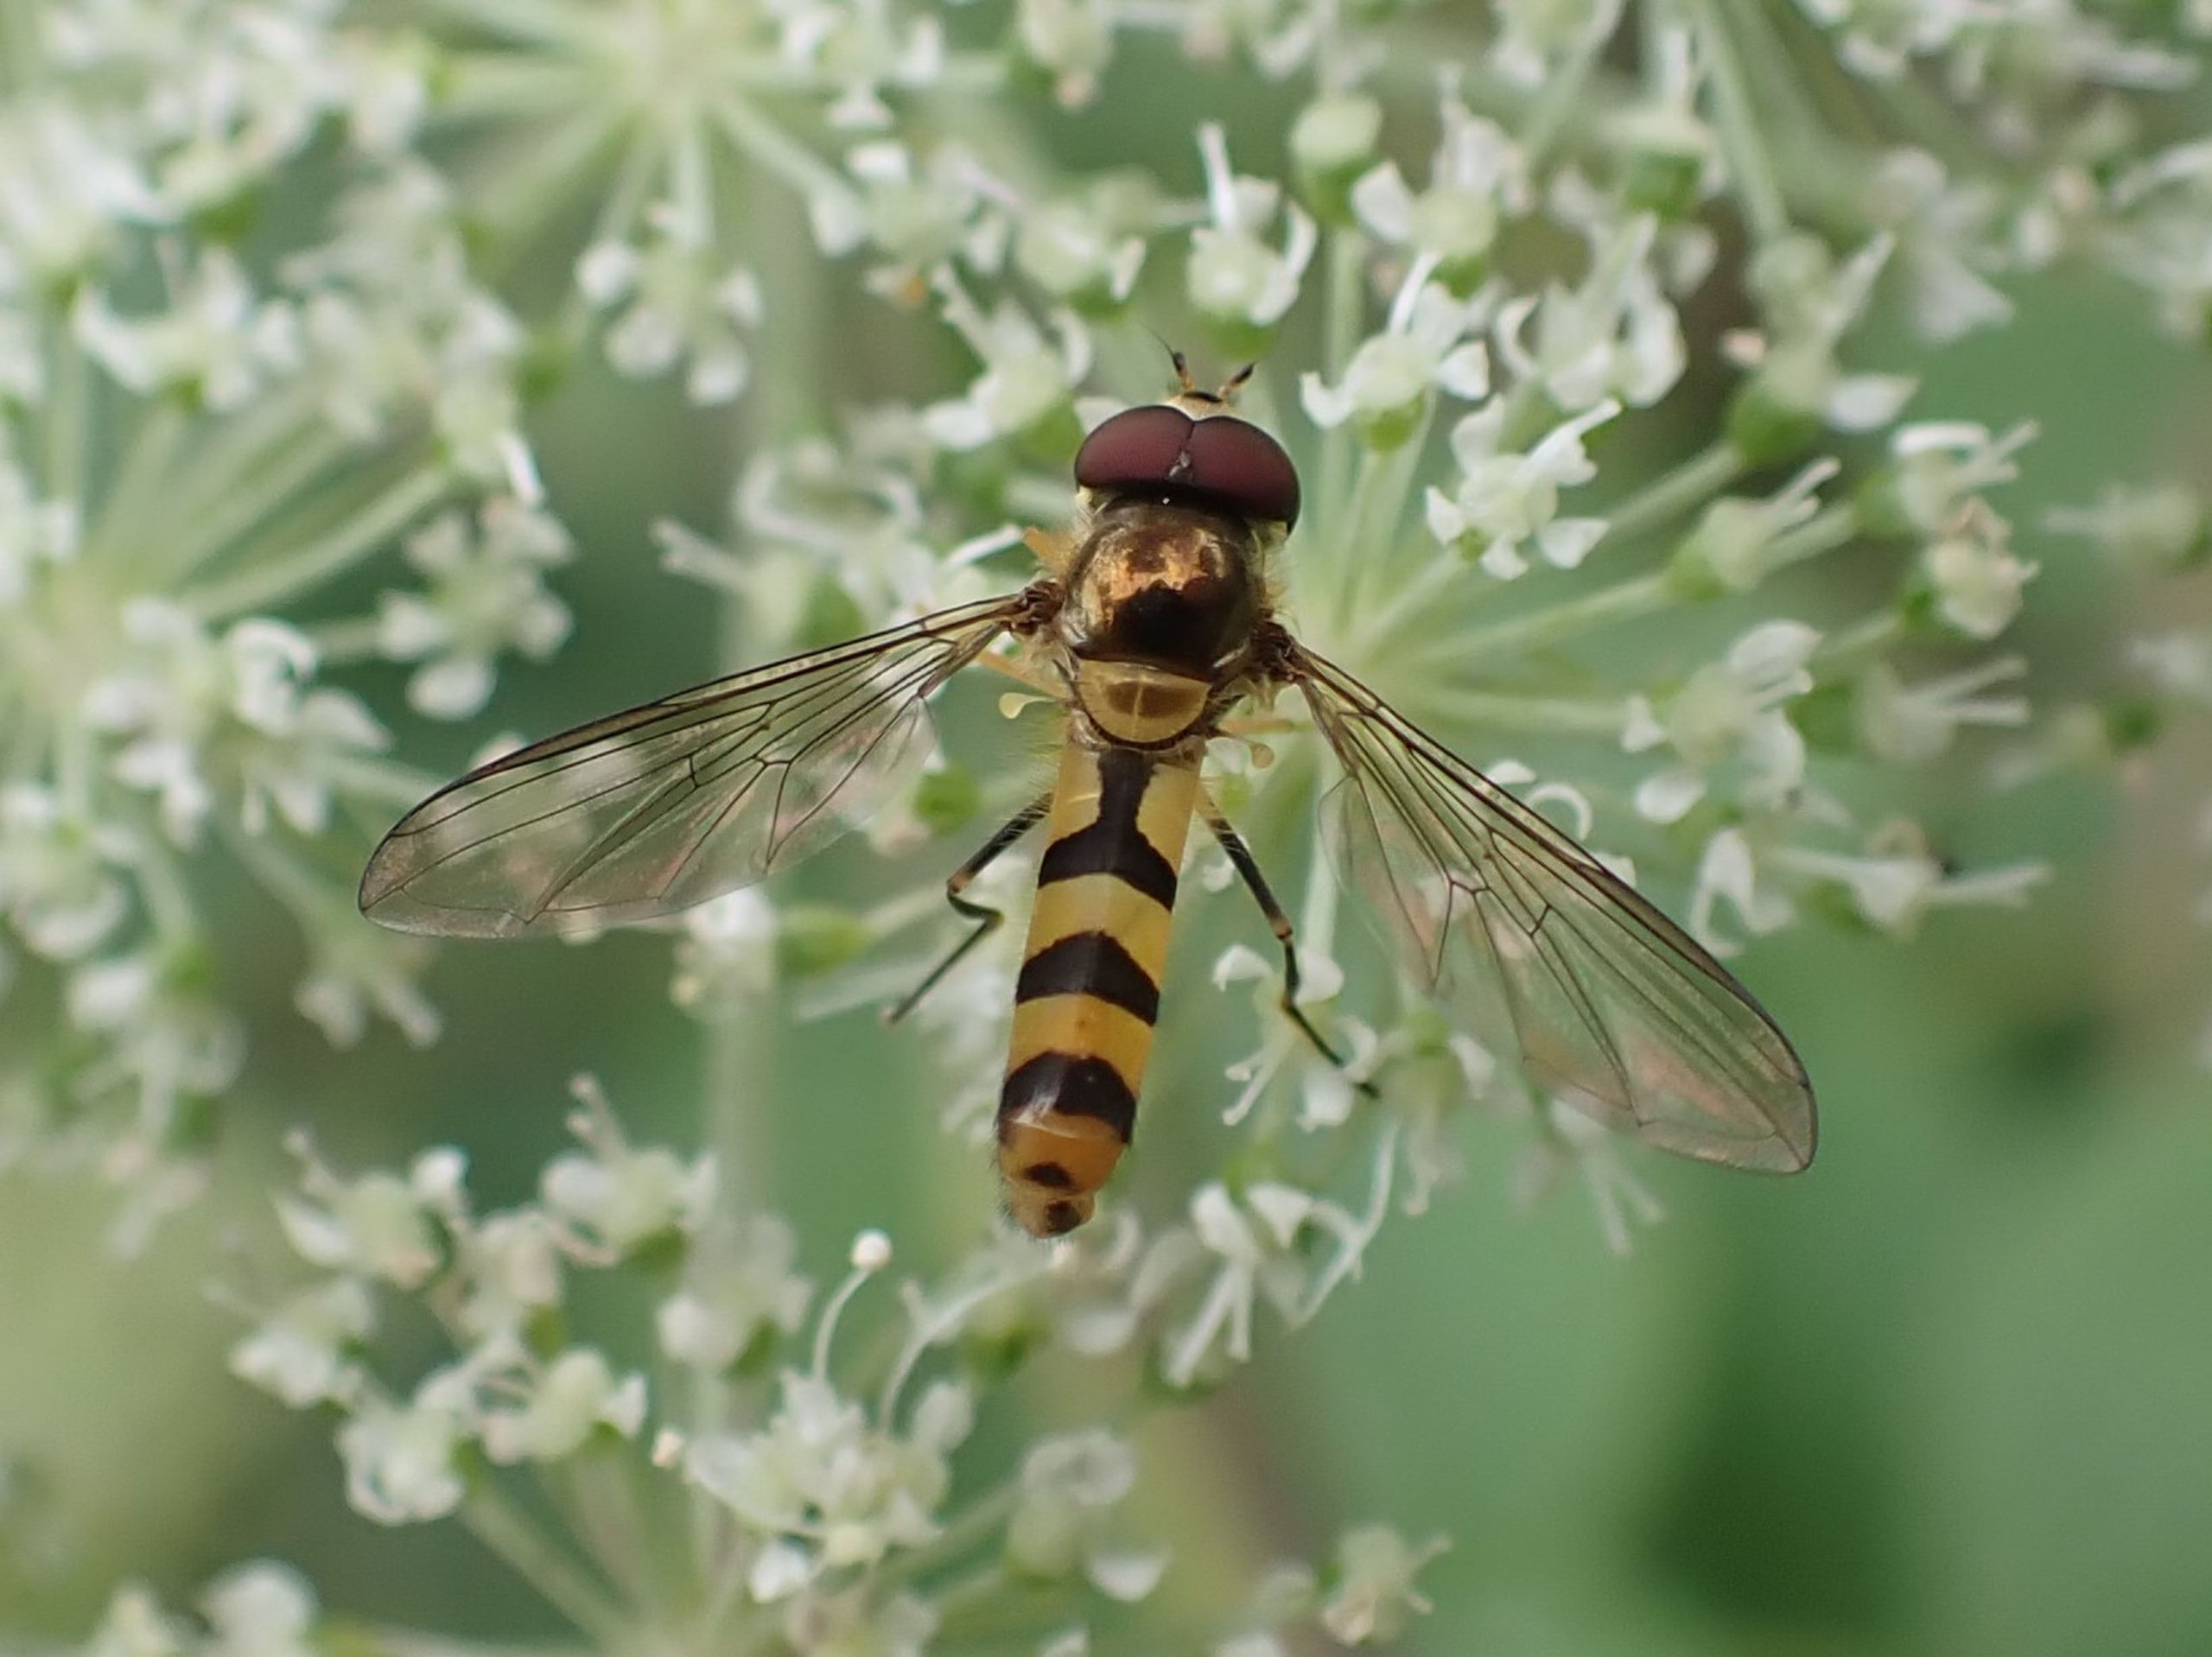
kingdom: Animalia
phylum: Arthropoda
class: Insecta
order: Diptera
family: Syrphidae
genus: Meliscaeva
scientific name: Meliscaeva cinctella
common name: Bælte-svirreflue
